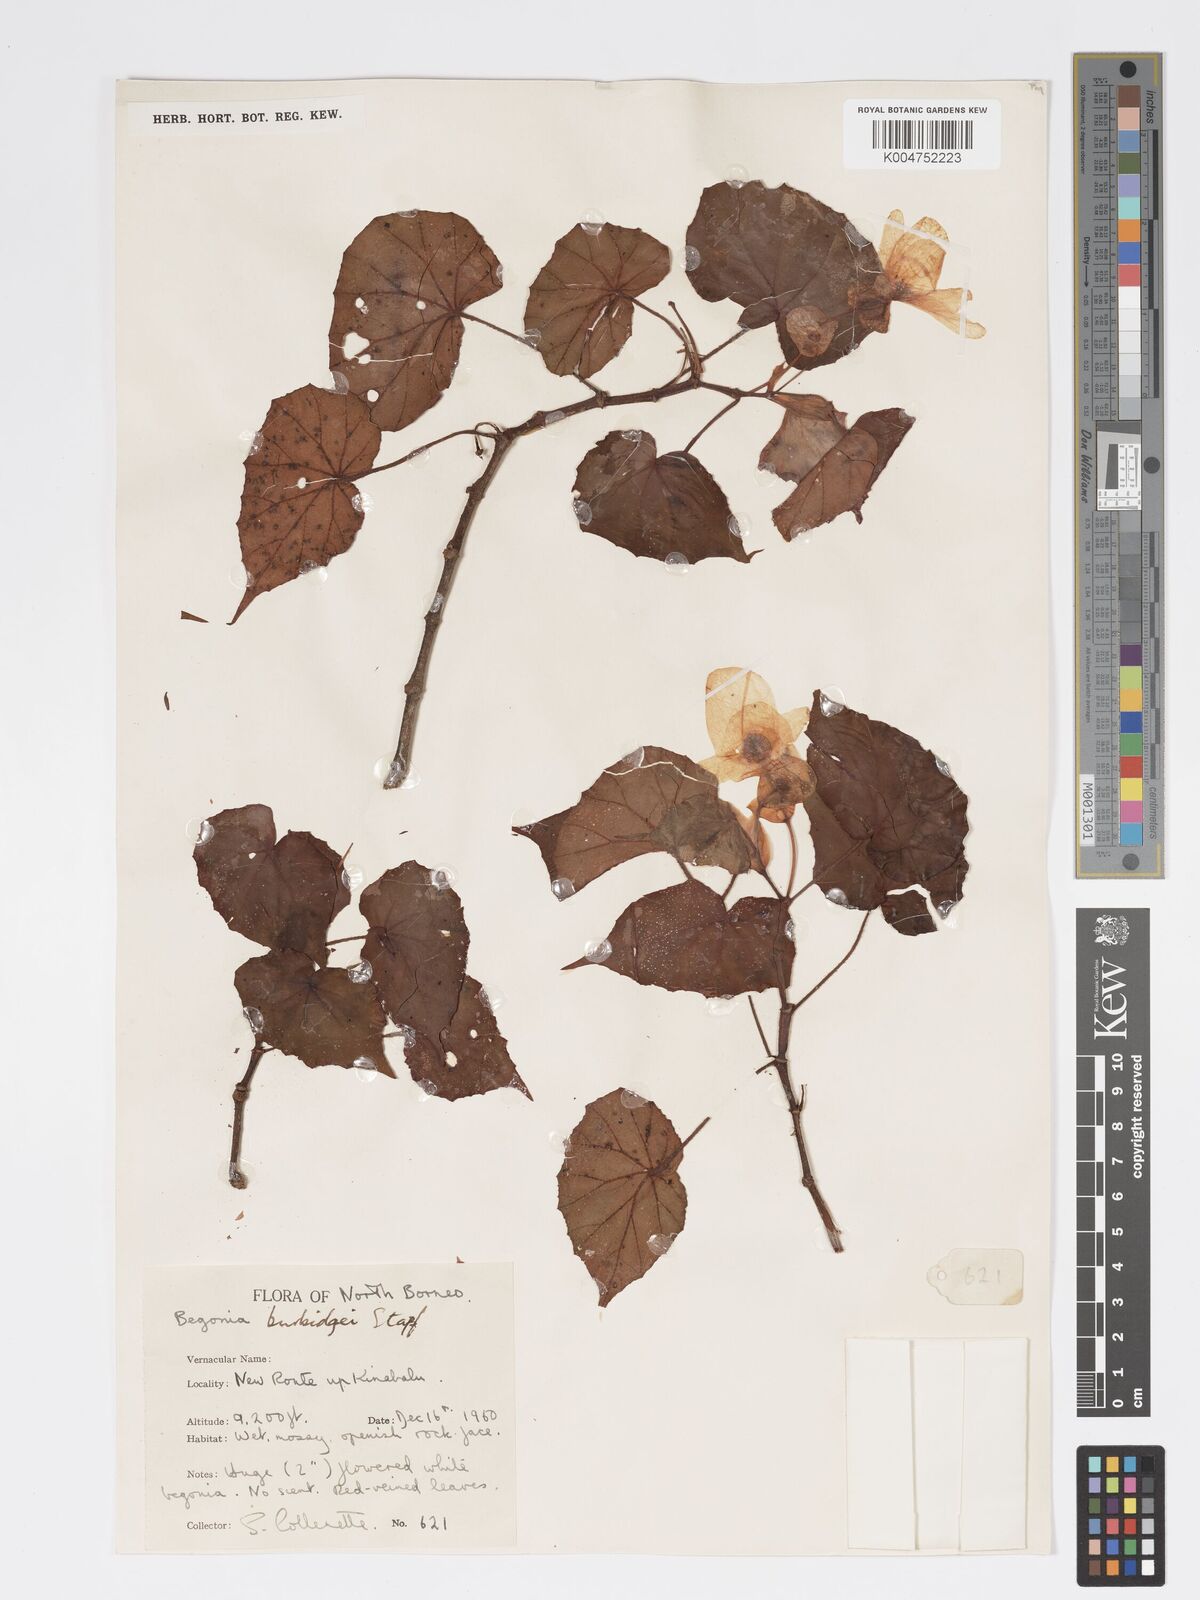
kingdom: Plantae
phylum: Tracheophyta
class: Magnoliopsida
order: Cucurbitales
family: Begoniaceae
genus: Begonia
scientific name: Begonia burbidgei
